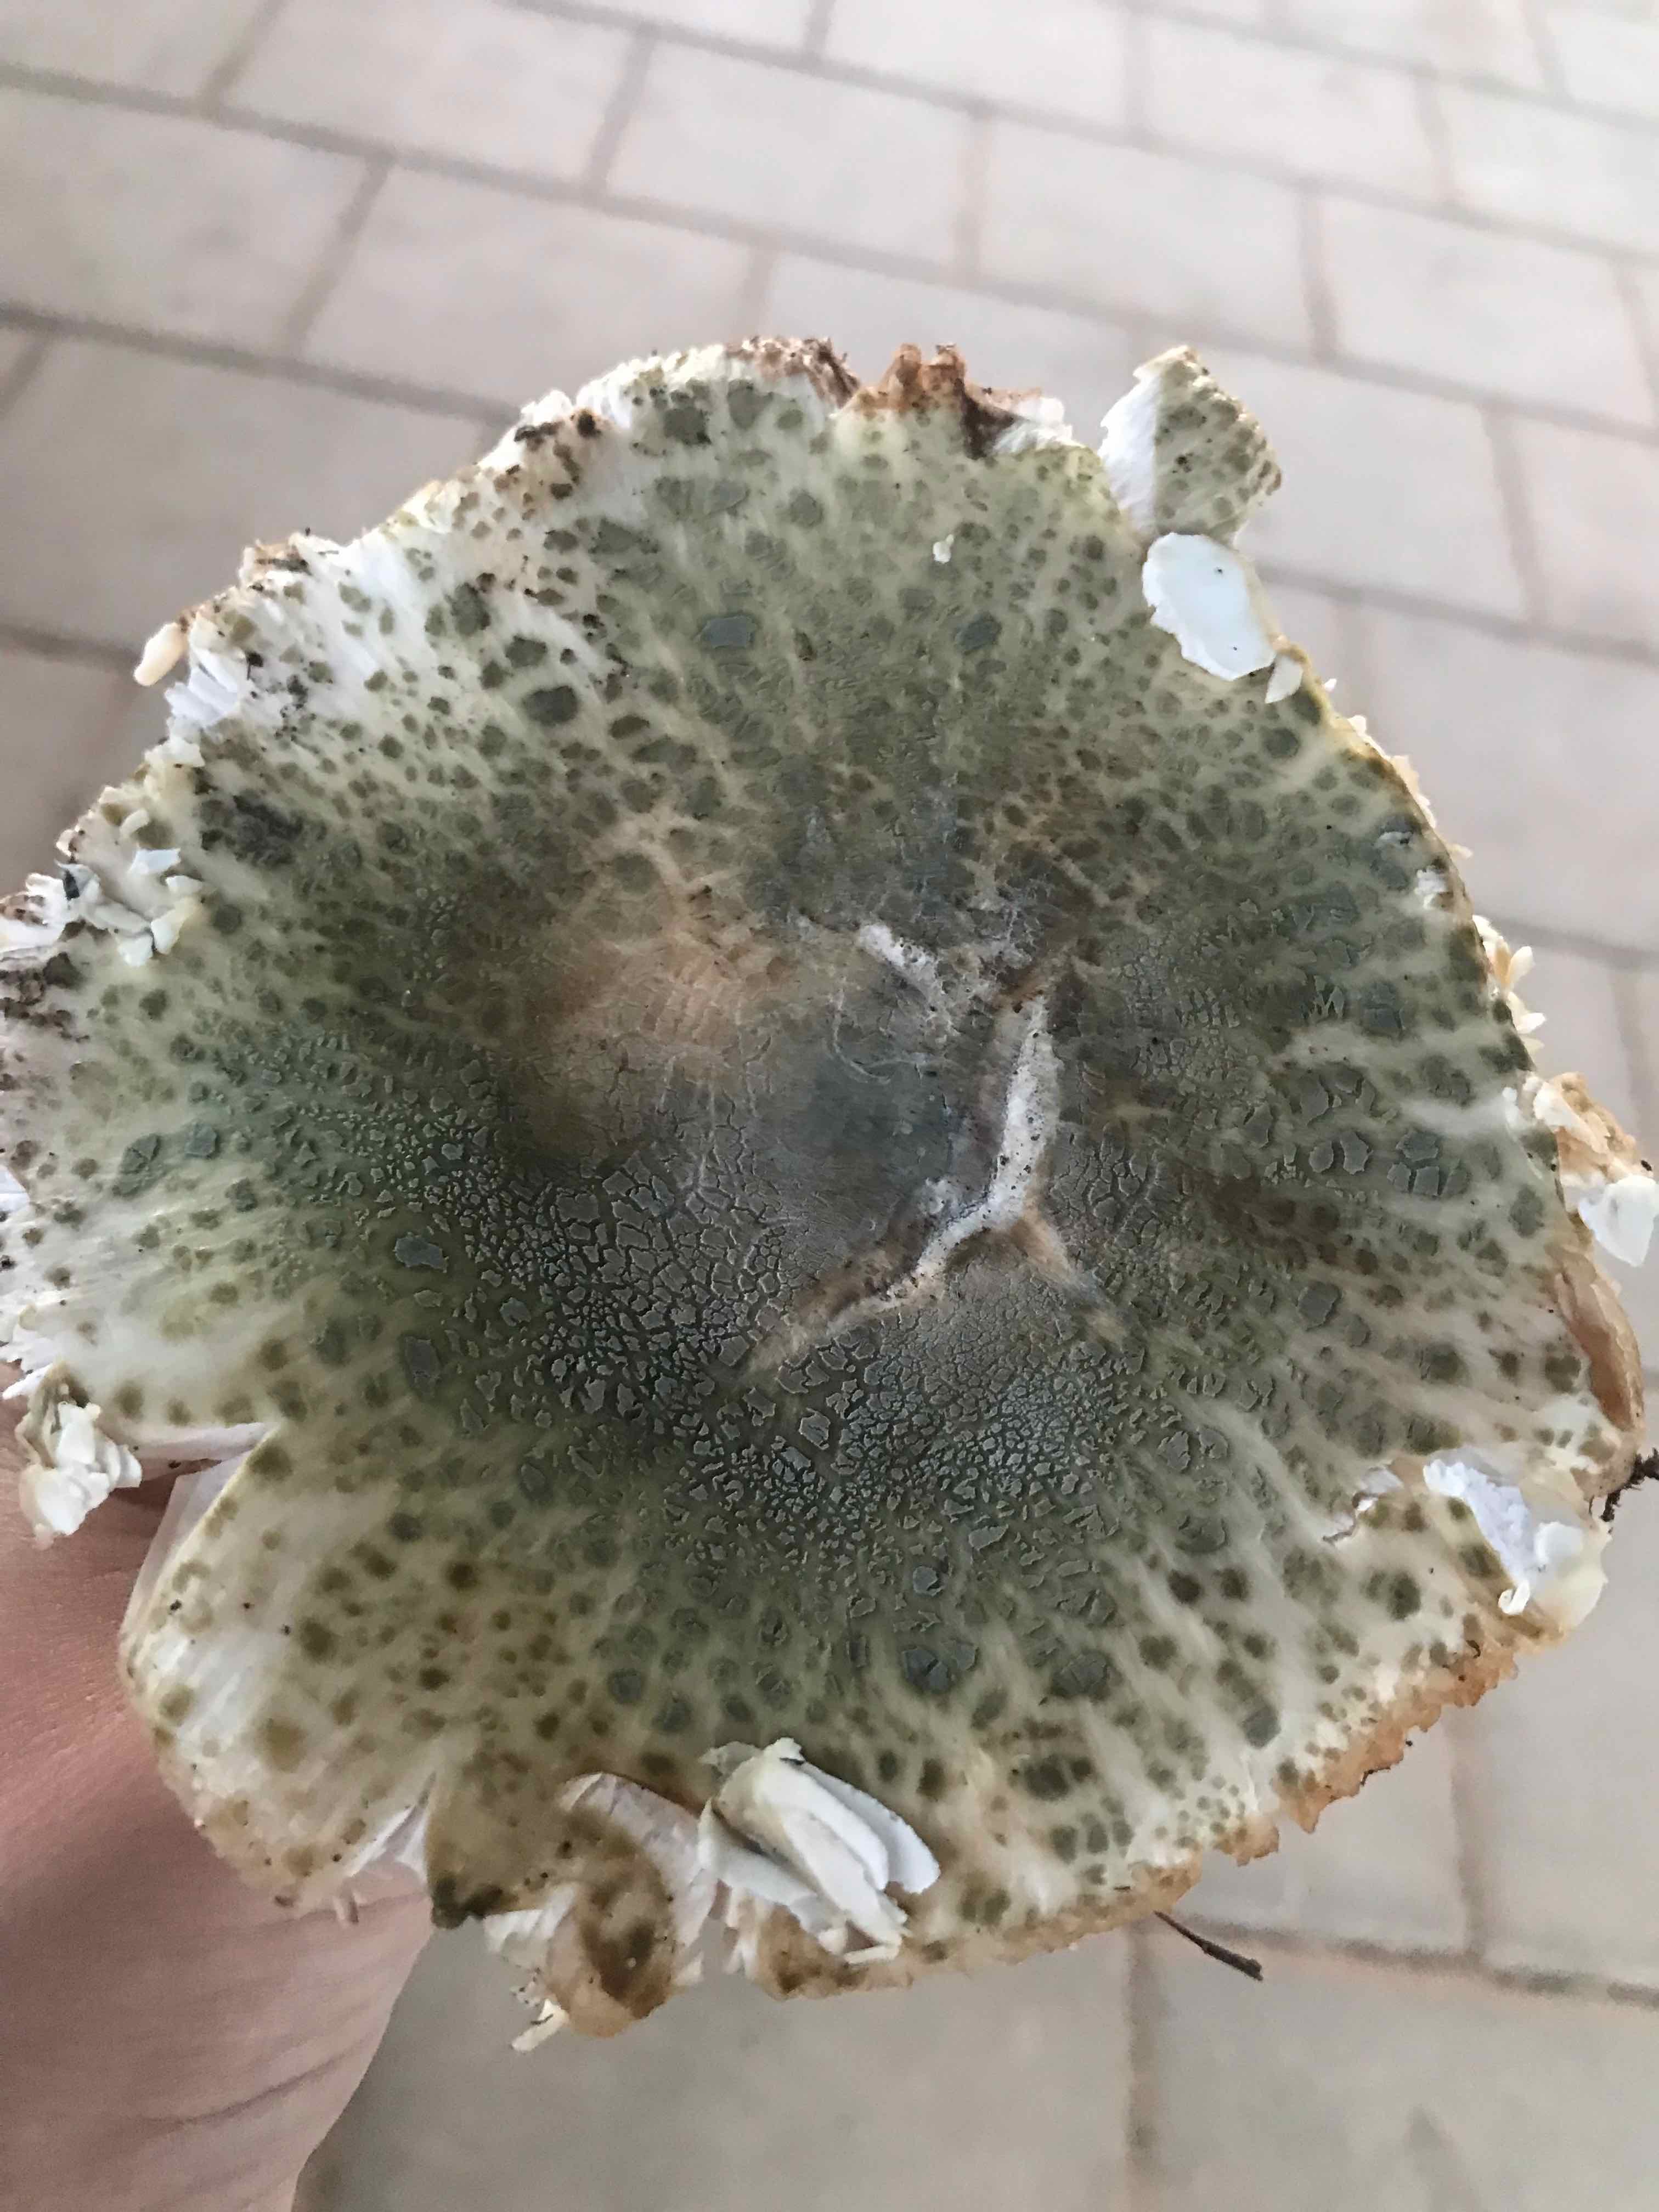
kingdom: Fungi
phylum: Basidiomycota
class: Agaricomycetes
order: Russulales
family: Russulaceae
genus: Russula
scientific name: Russula virescens
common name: spanskgrøn skørhat
